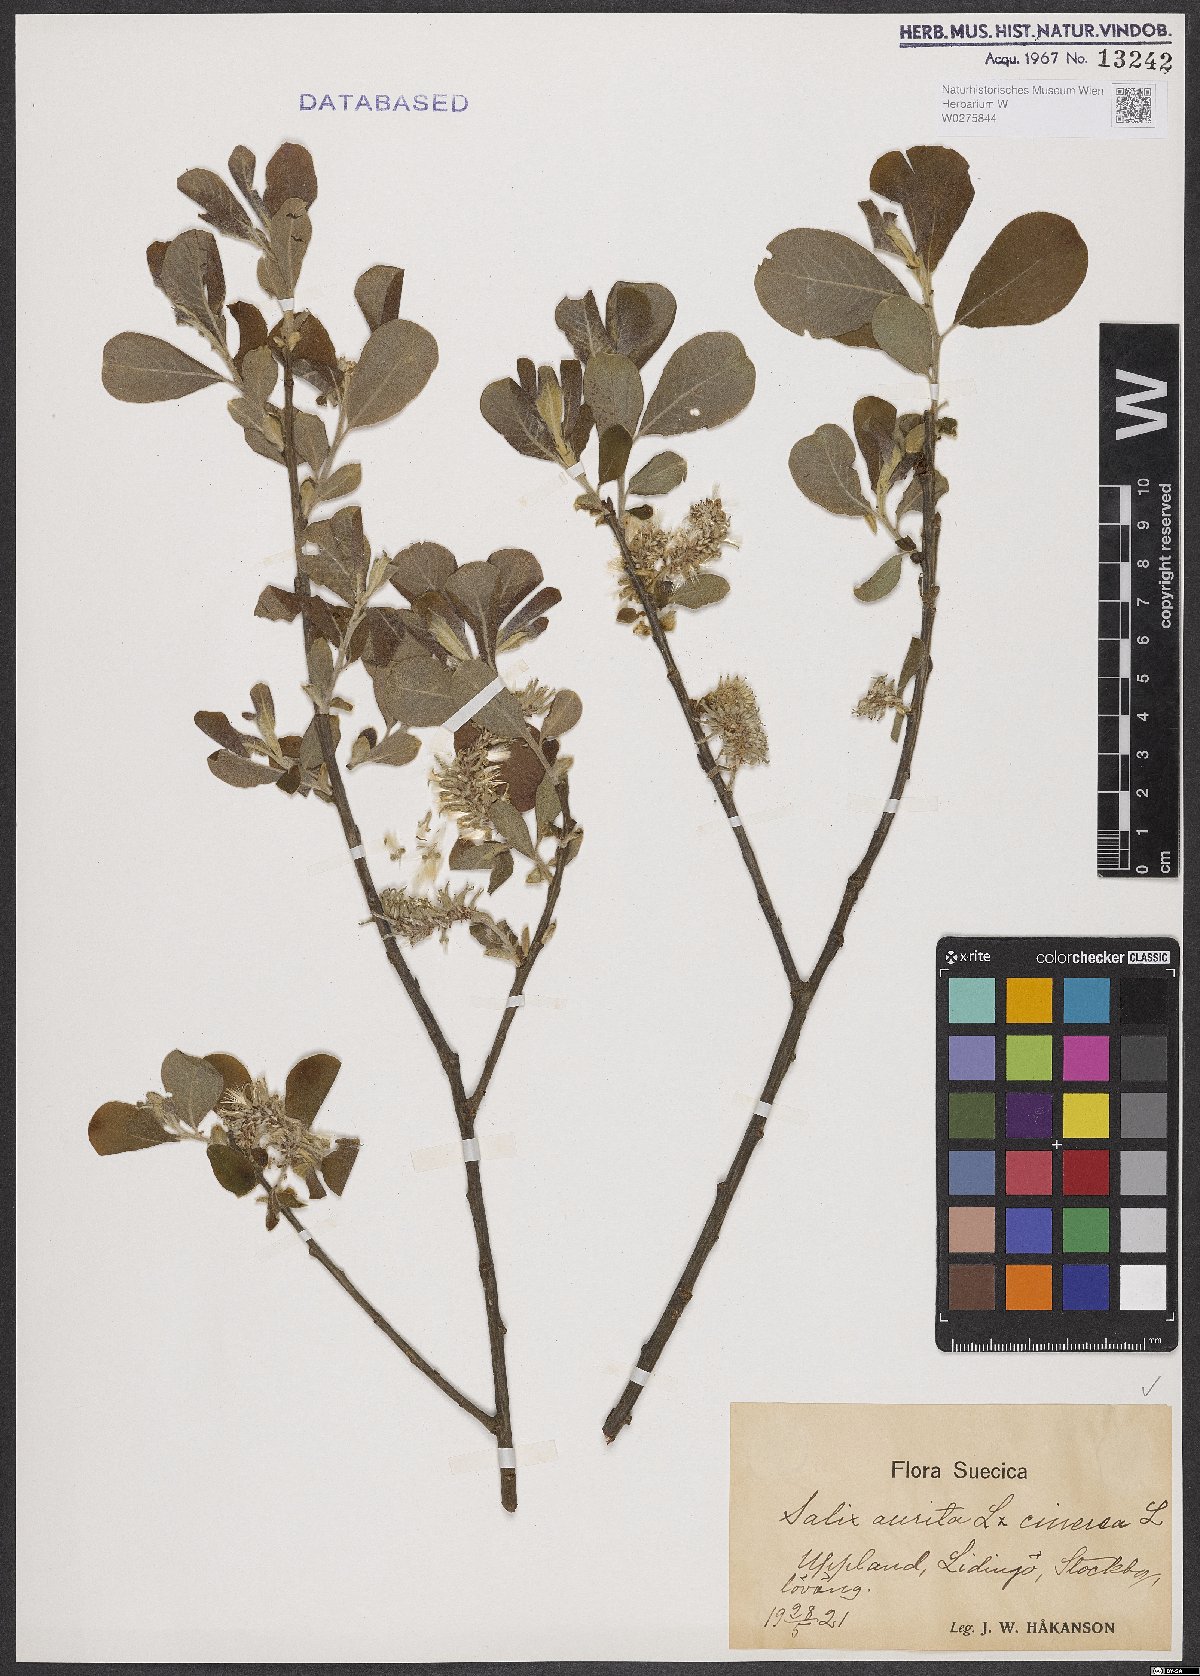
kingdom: Plantae
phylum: Tracheophyta
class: Magnoliopsida
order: Malpighiales
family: Salicaceae
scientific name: Salicaceae
